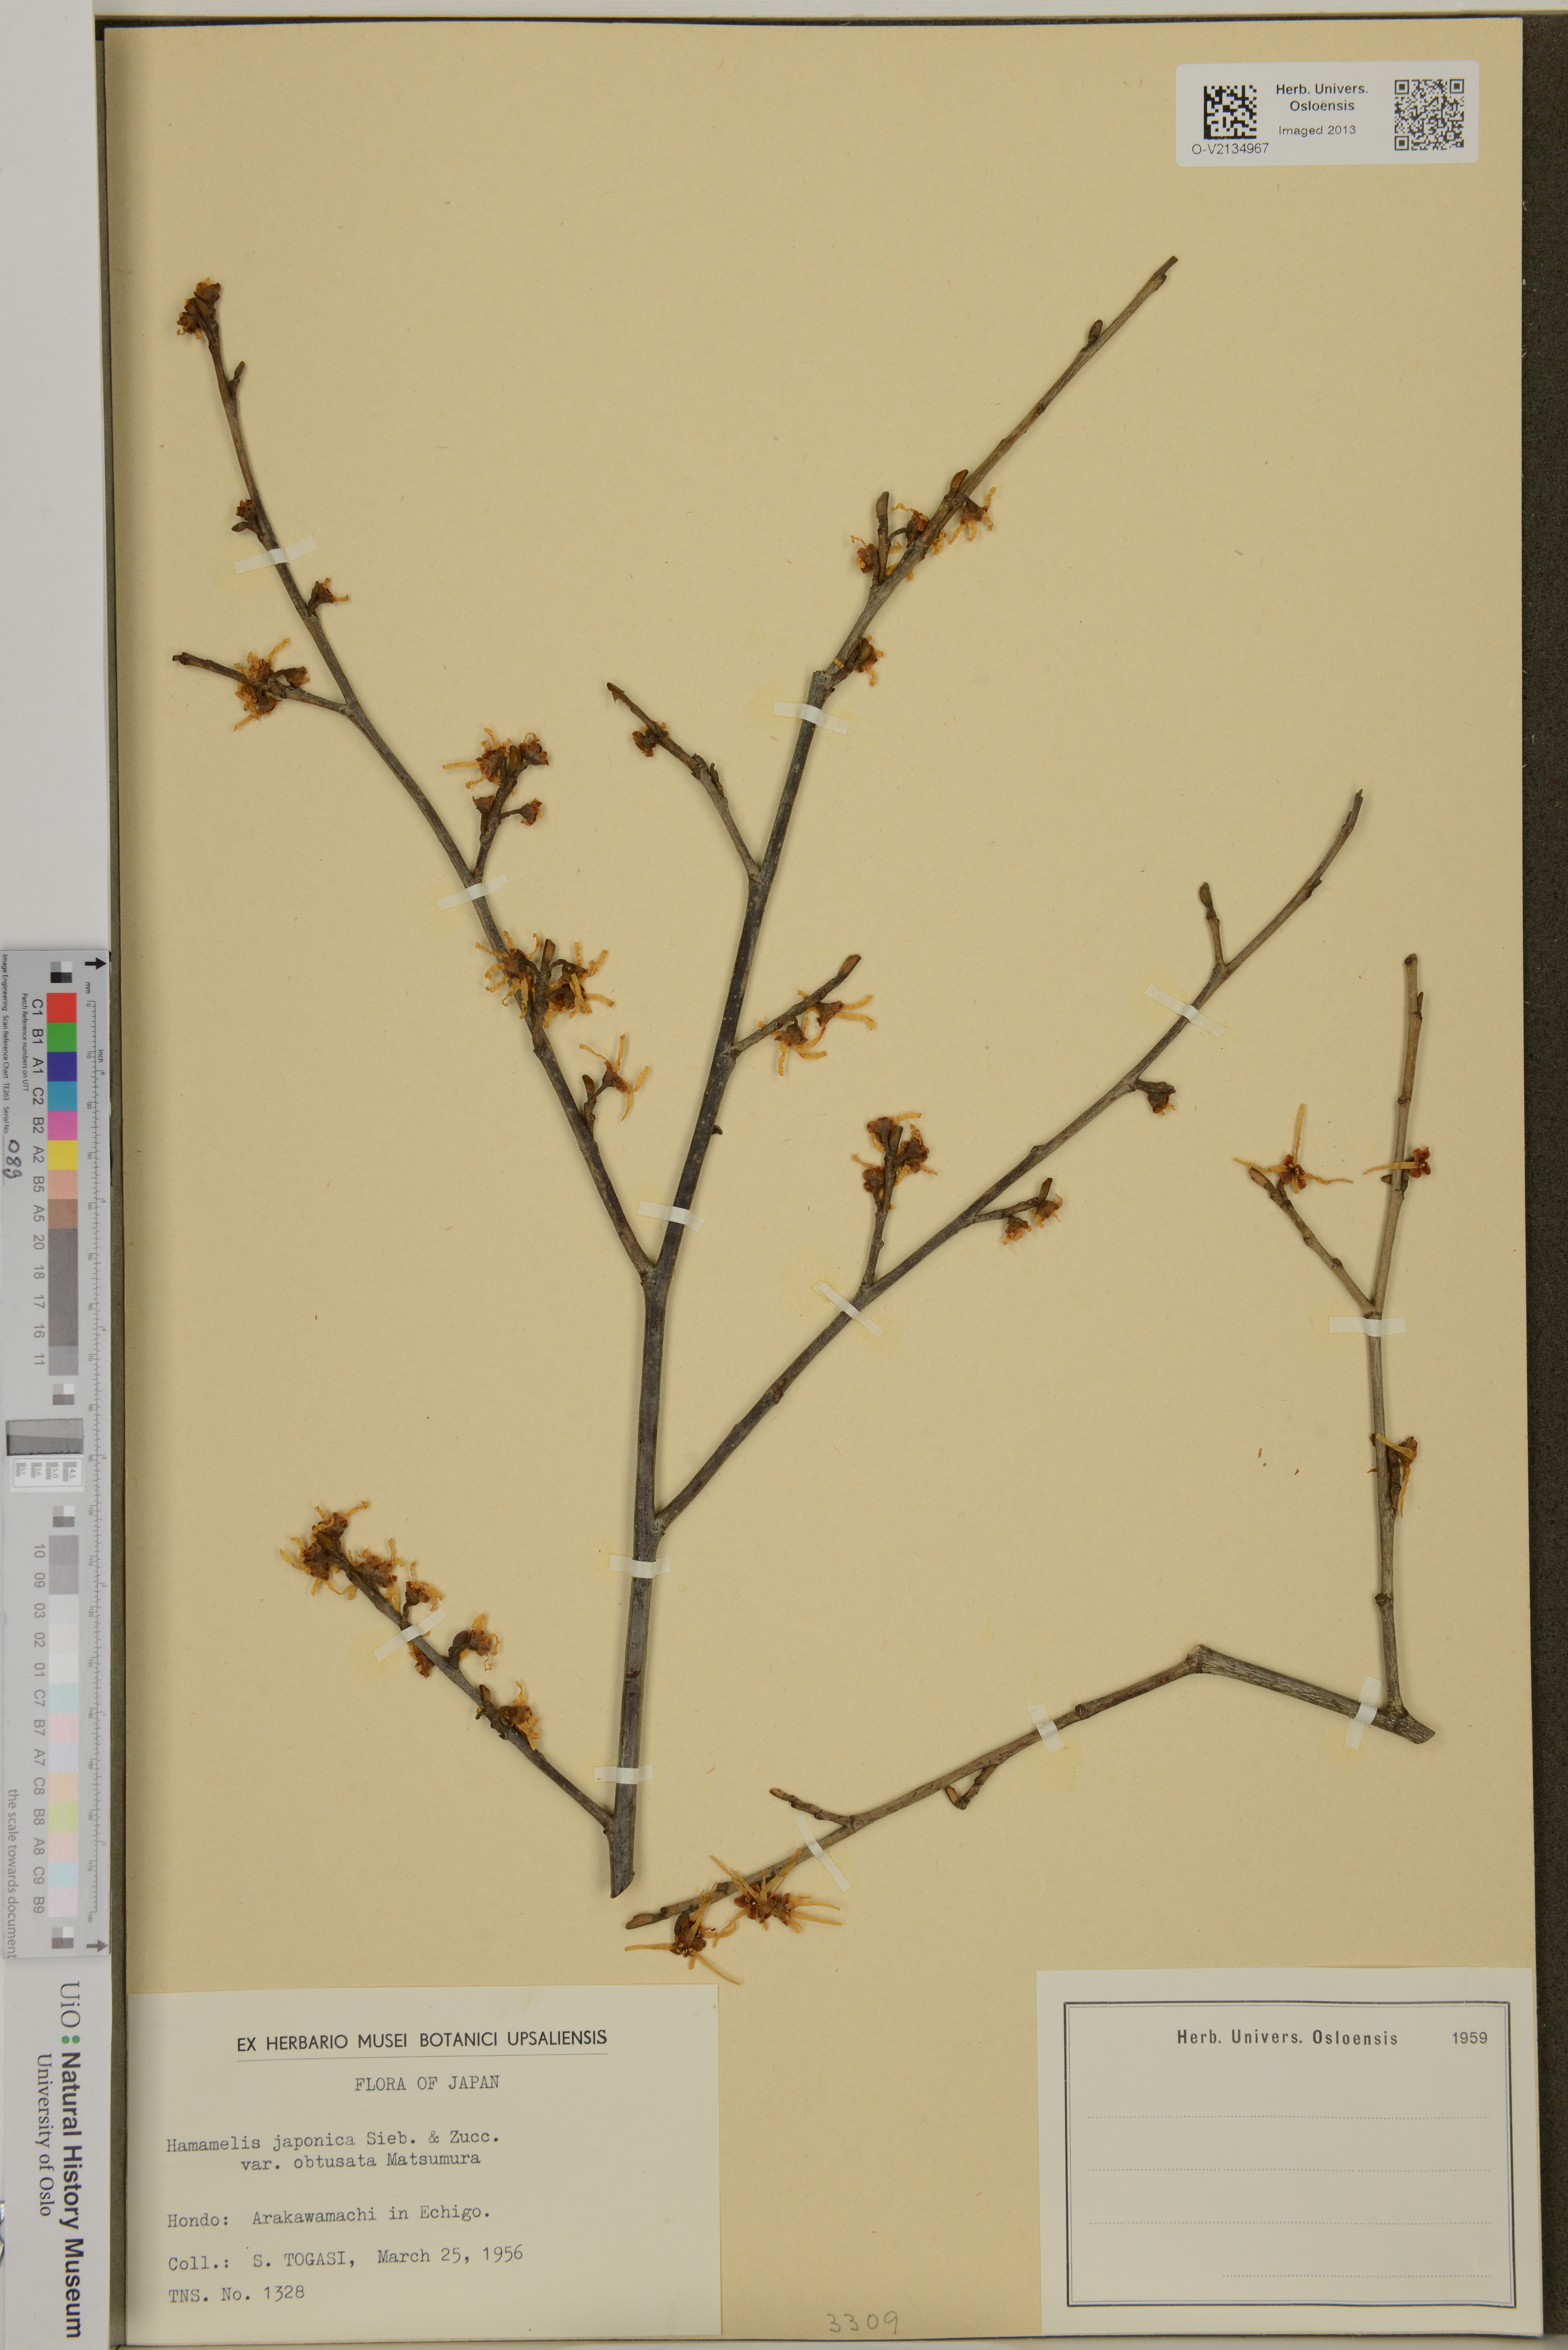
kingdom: Plantae
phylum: Tracheophyta
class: Magnoliopsida
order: Saxifragales
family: Hamamelidaceae
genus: Hamamelis
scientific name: Hamamelis japonica
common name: Japanese witch-hazel
